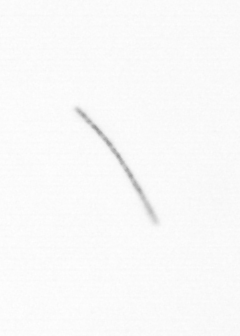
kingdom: Chromista
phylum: Ochrophyta
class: Bacillariophyceae
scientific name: Bacillariophyceae
